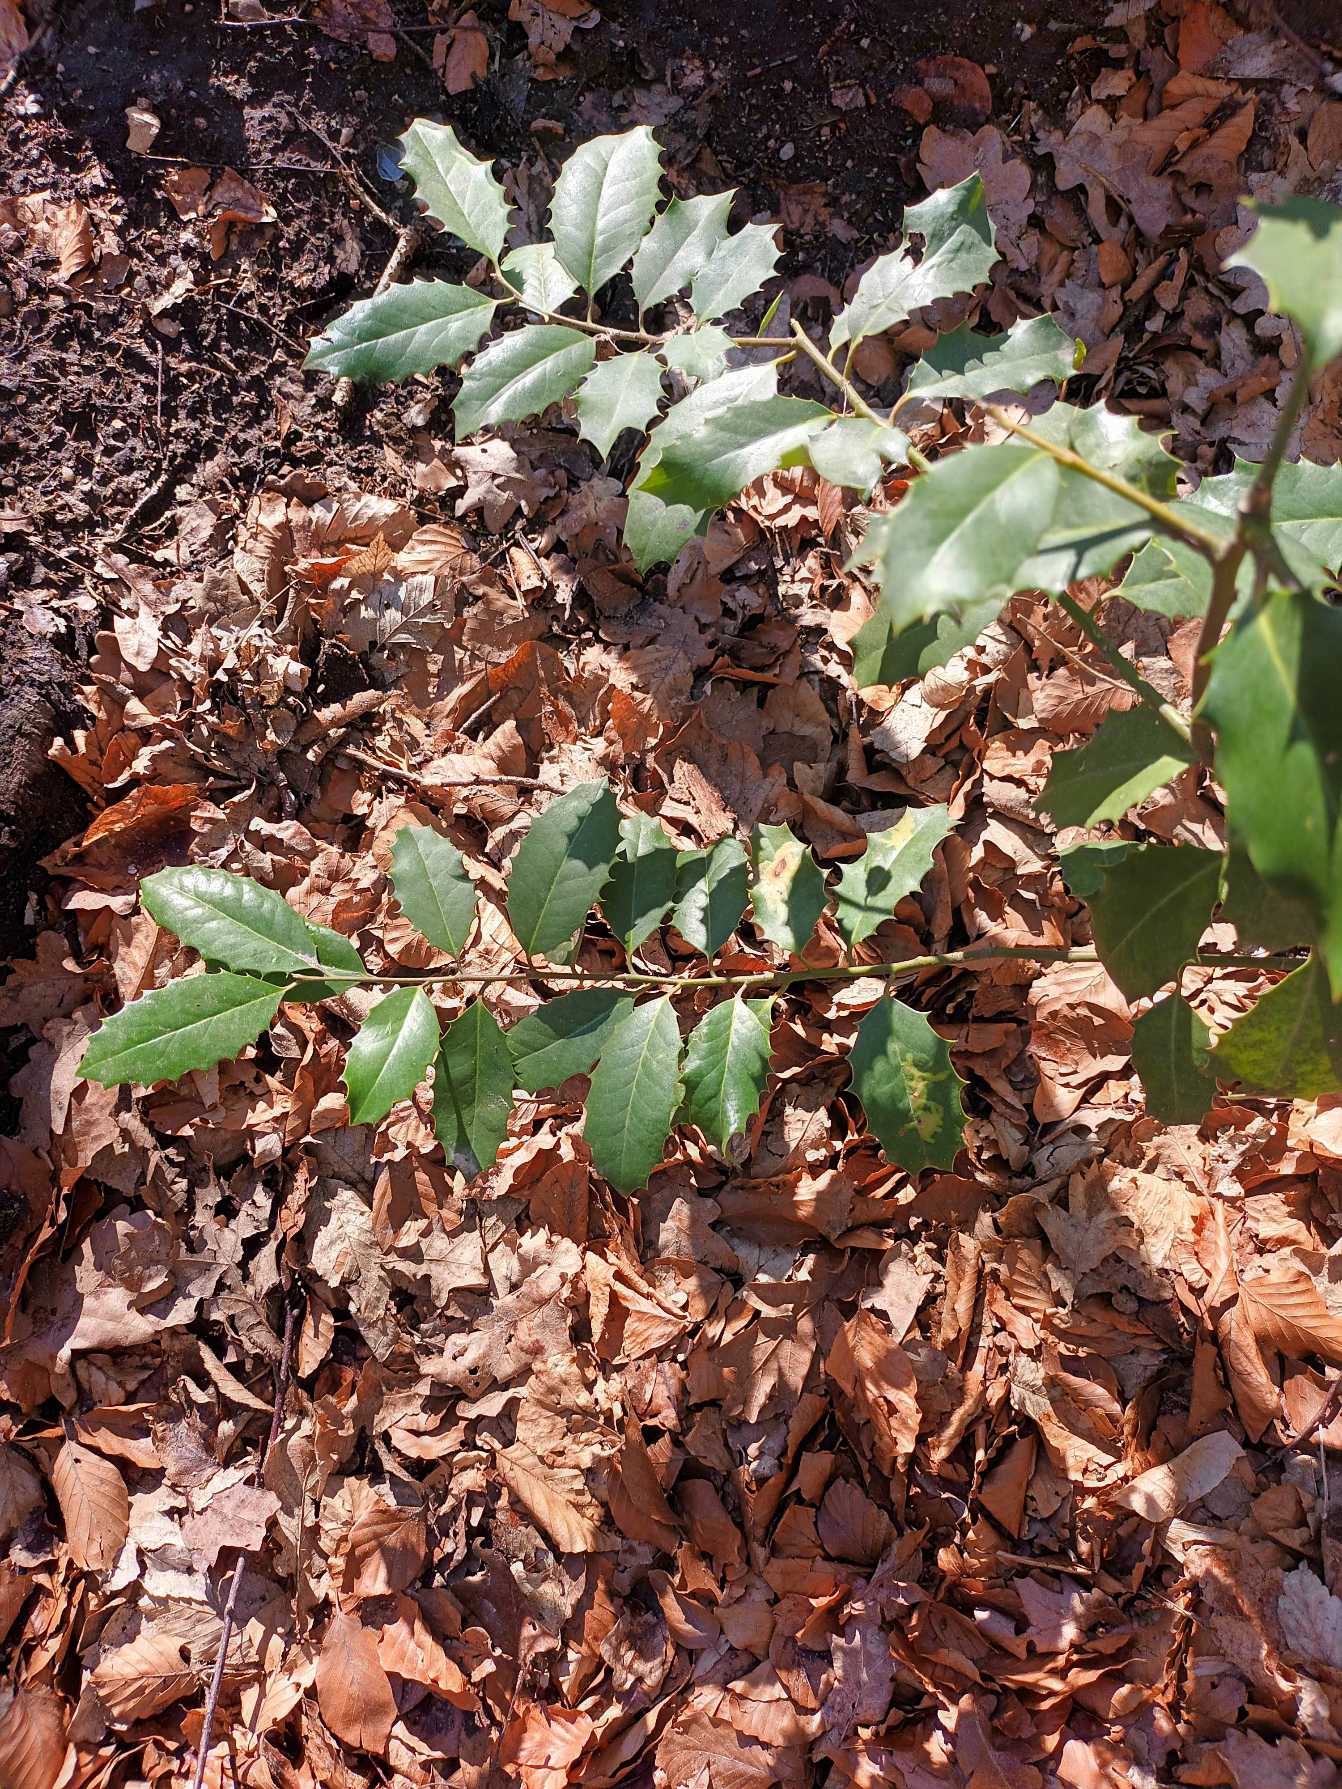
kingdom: Plantae
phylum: Tracheophyta
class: Magnoliopsida
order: Aquifoliales
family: Aquifoliaceae
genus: Ilex
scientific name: Ilex altaclerensis
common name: Storbladet kristtorn
